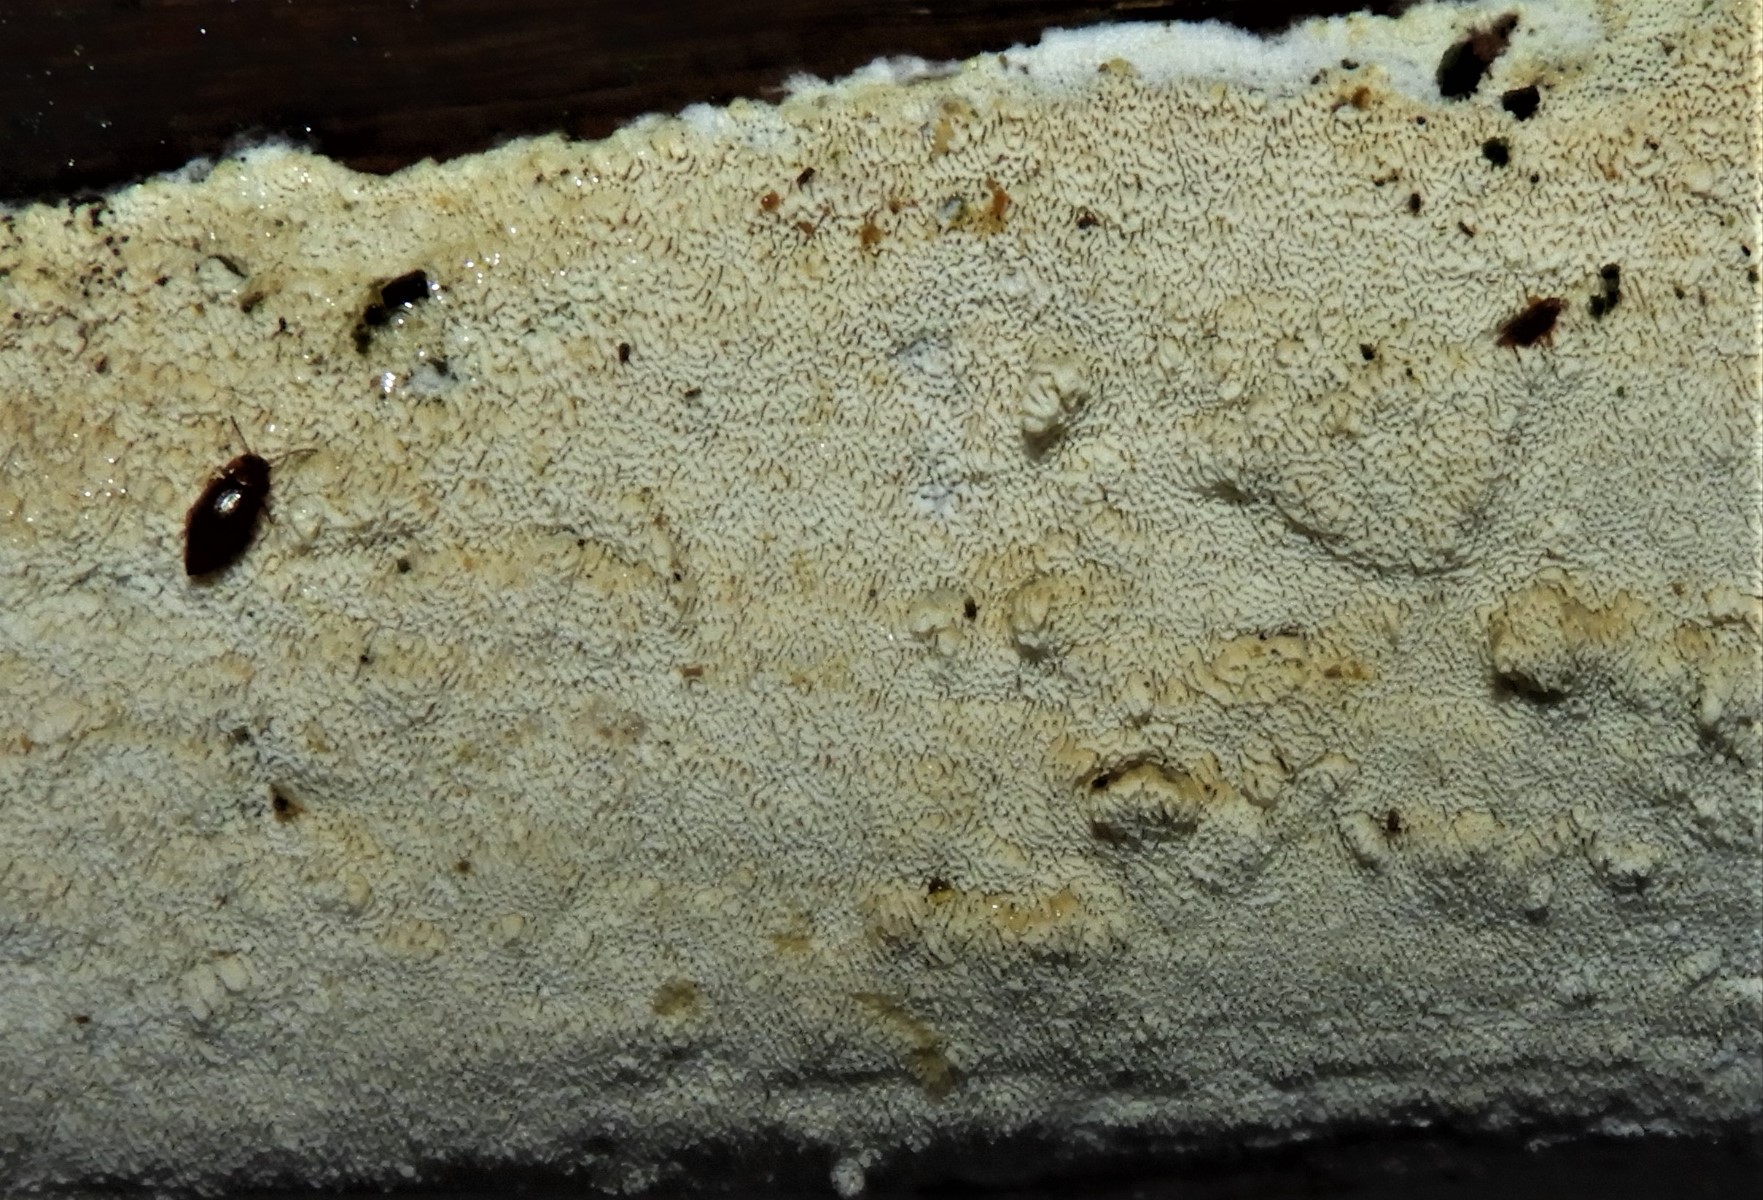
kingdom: Fungi
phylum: Basidiomycota
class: Agaricomycetes
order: Hymenochaetales
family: Schizoporaceae
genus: Xylodon
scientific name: Xylodon
